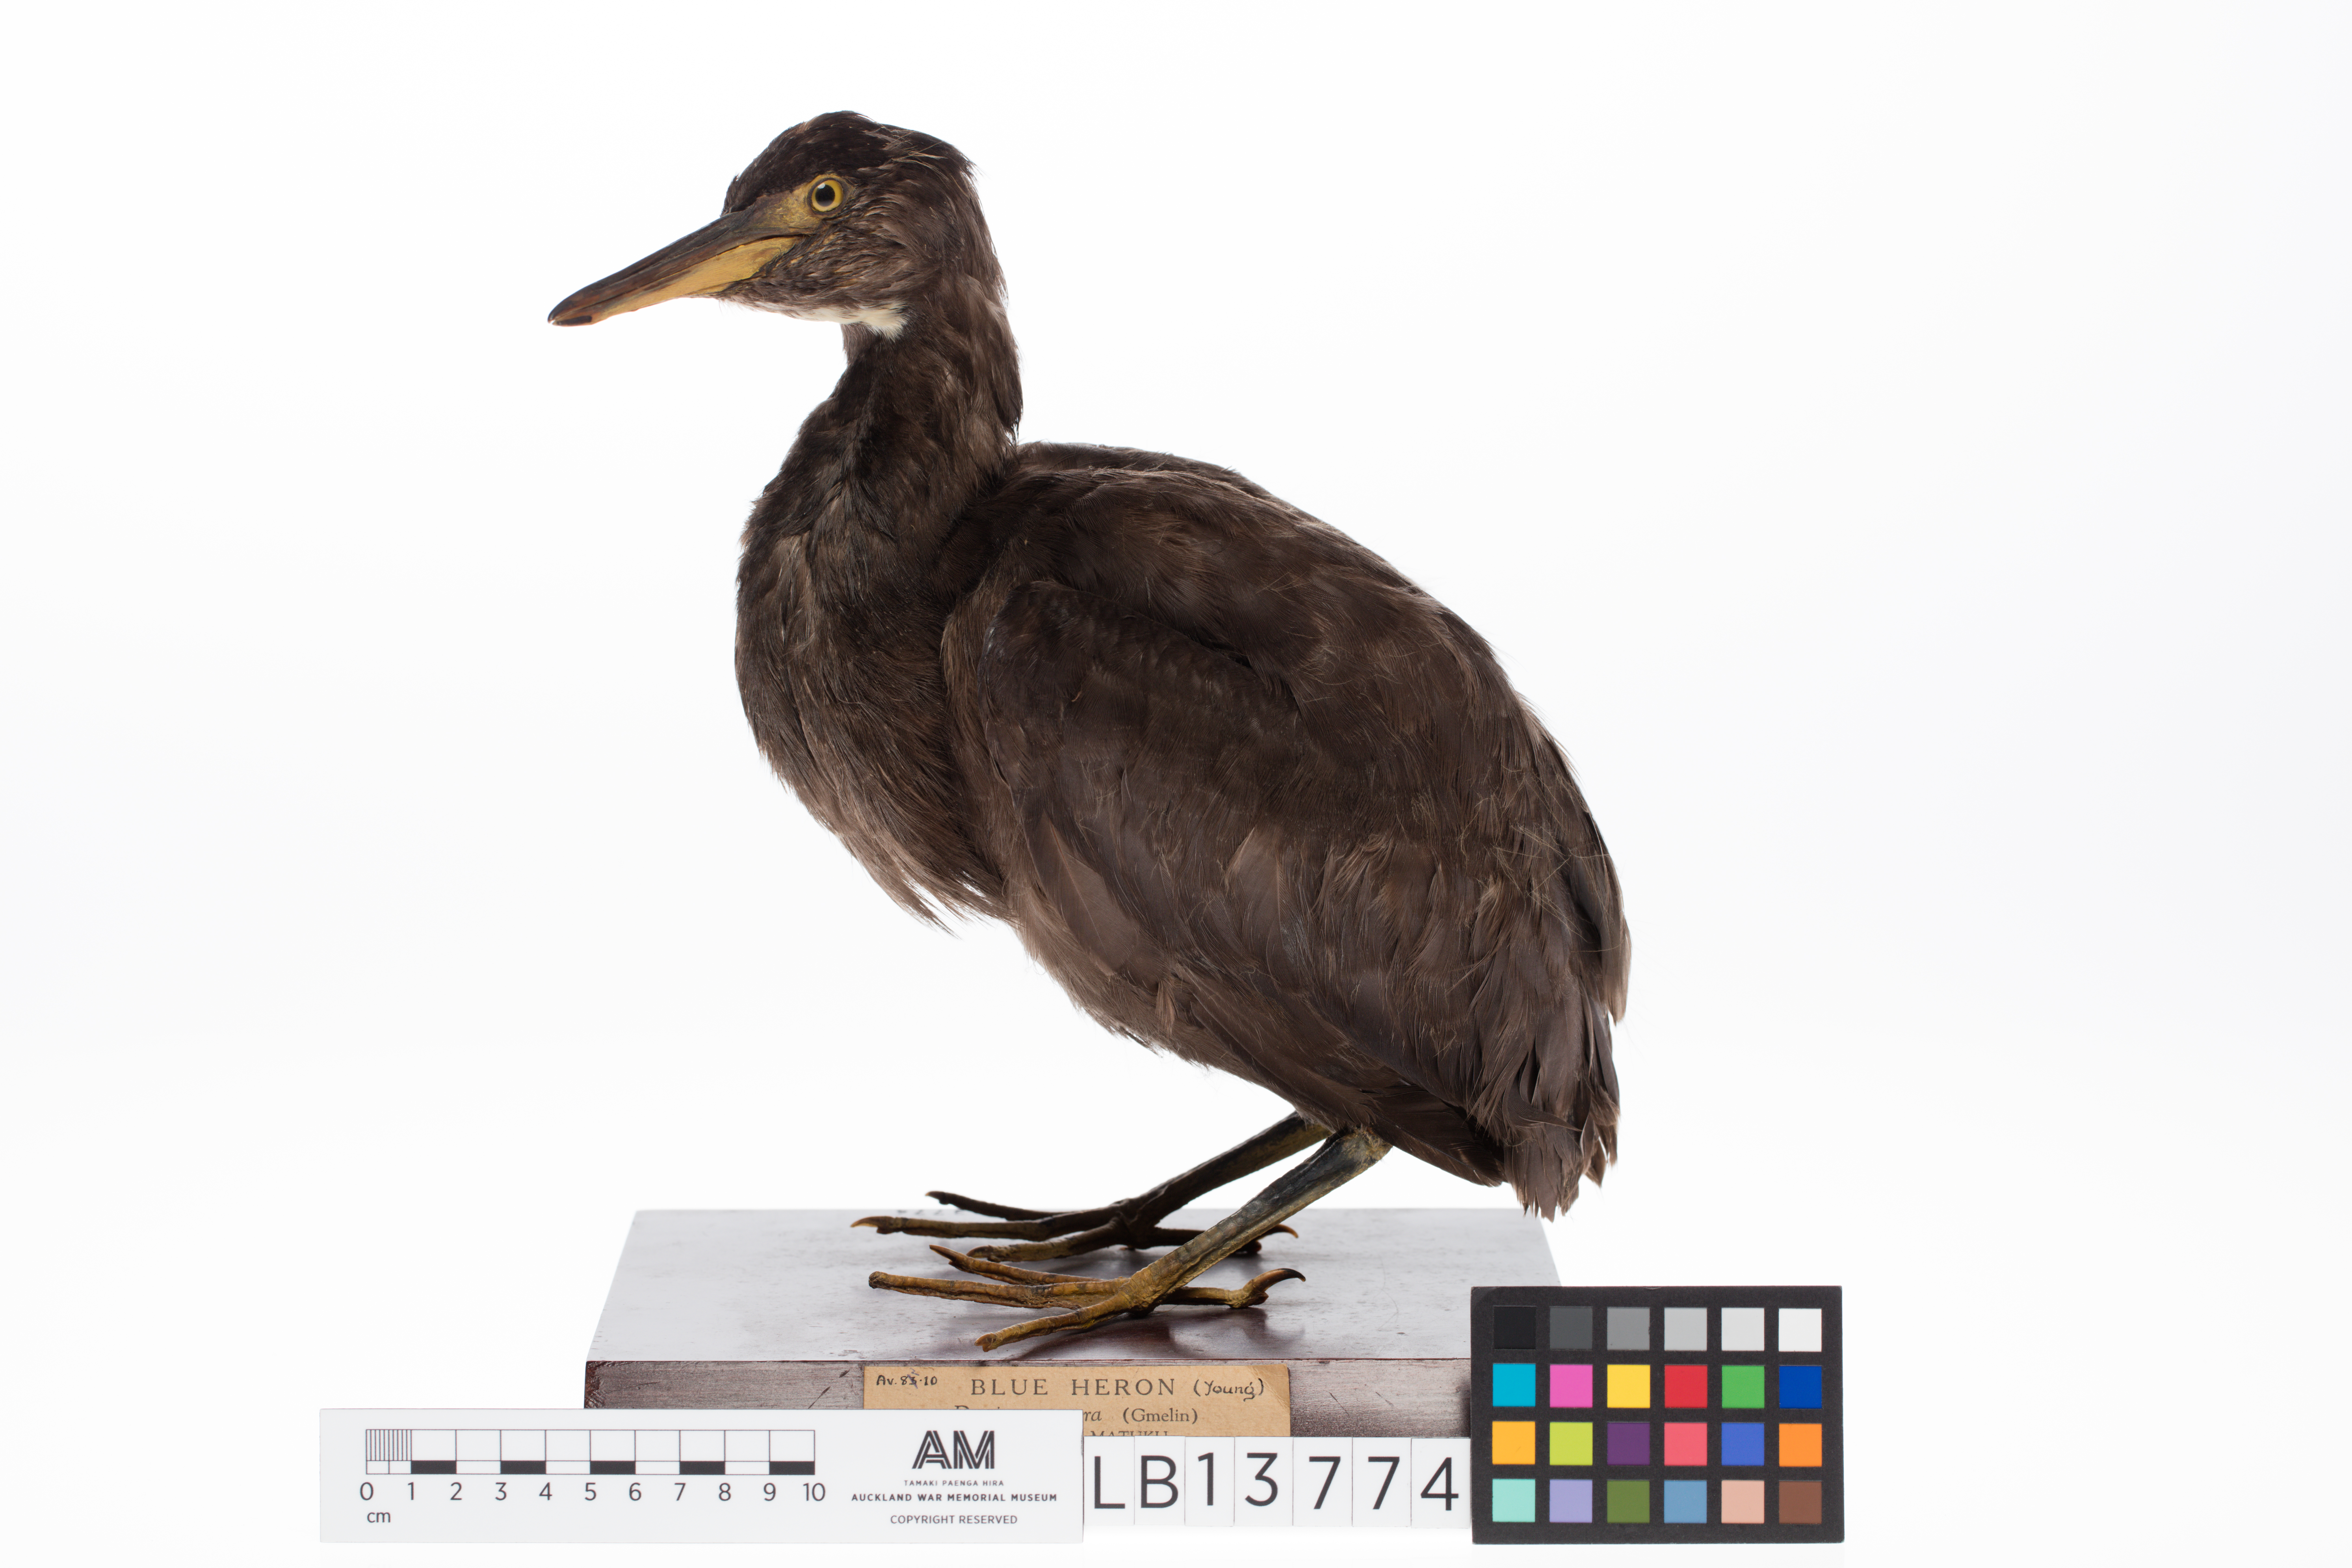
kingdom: Animalia
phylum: Chordata
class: Aves
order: Pelecaniformes
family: Ardeidae
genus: Egretta
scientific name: Egretta sacra
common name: Pacific reef heron
